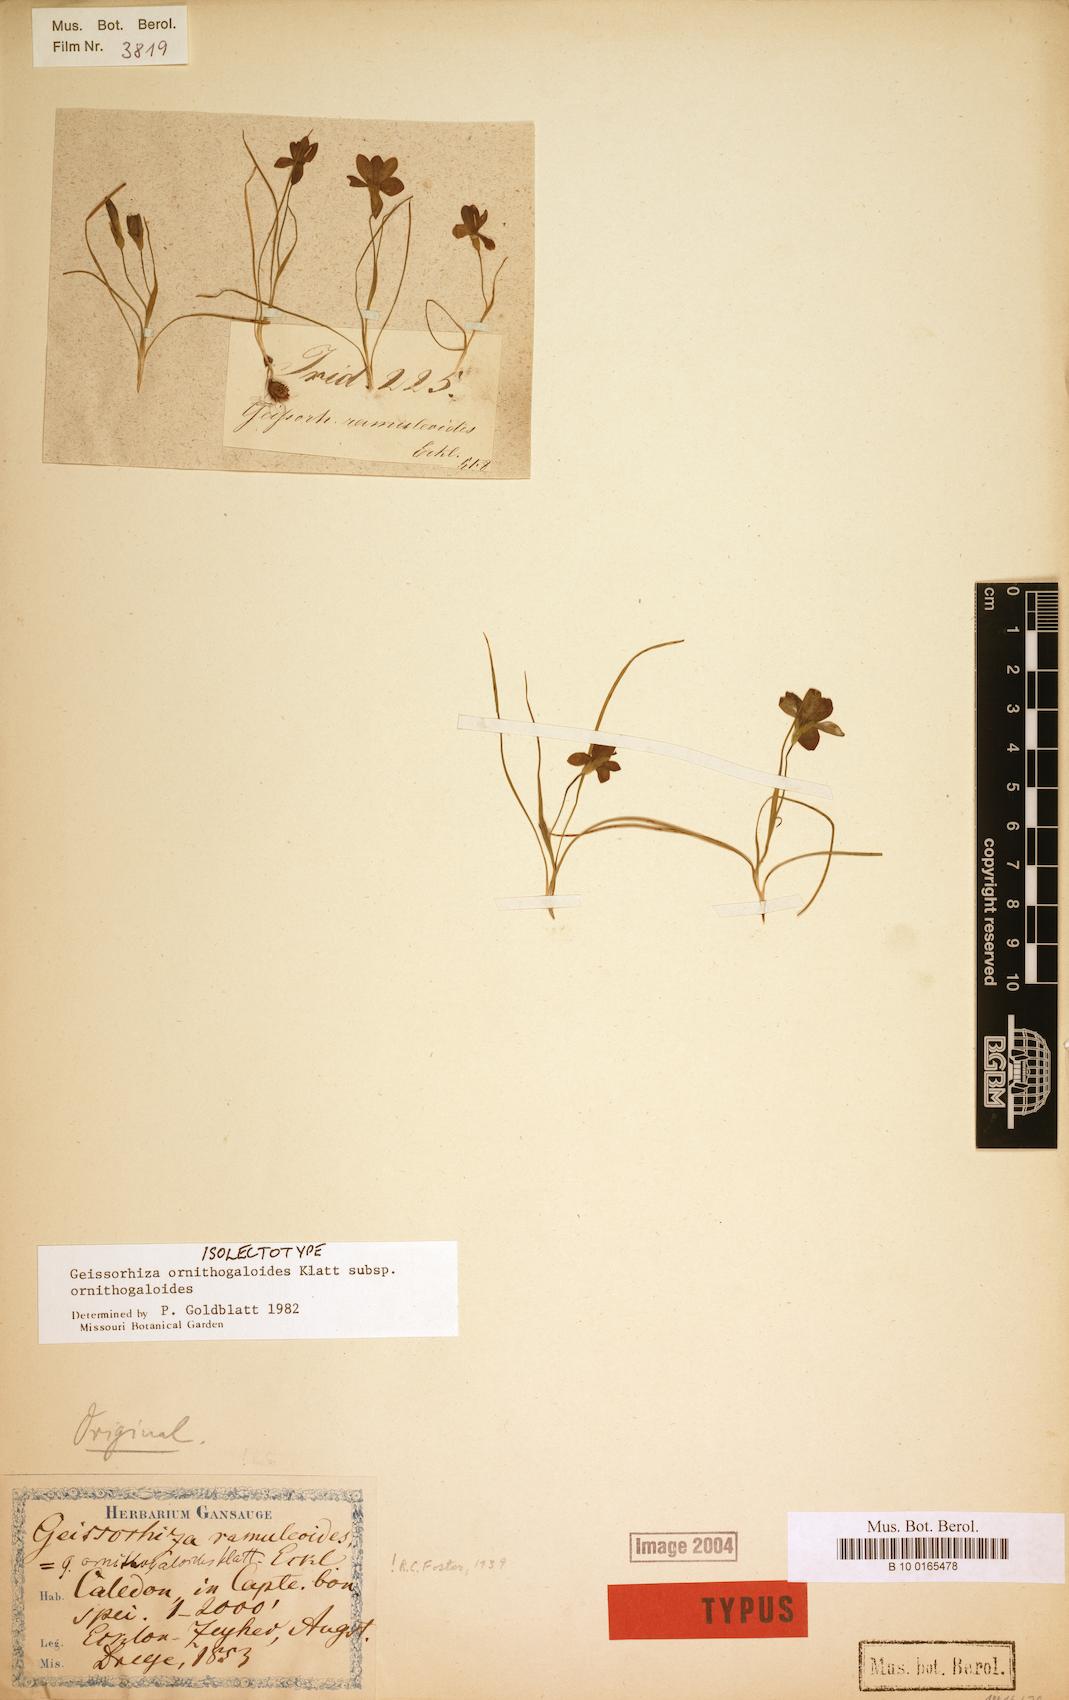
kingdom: Plantae
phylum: Tracheophyta
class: Liliopsida
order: Asparagales
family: Iridaceae
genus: Geissorhiza
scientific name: Geissorhiza ornithogaloides
